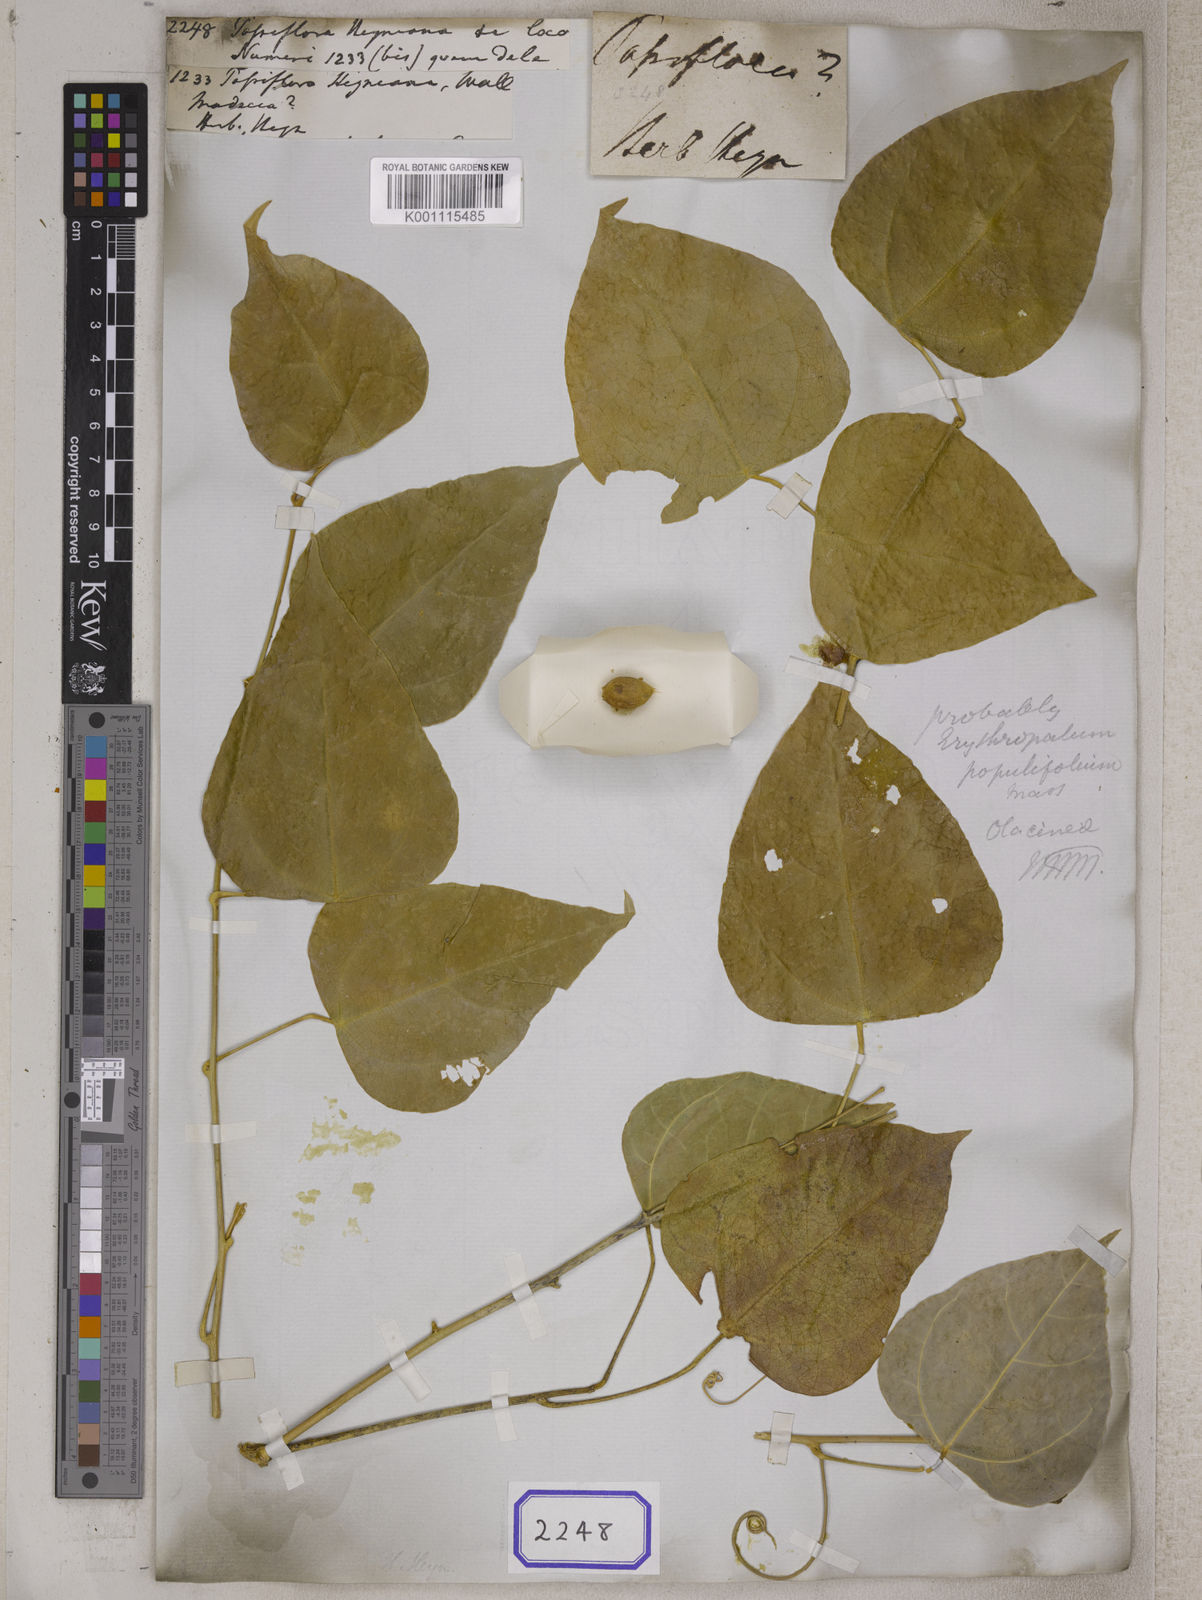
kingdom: Plantae
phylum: Tracheophyta
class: Magnoliopsida
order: Santalales
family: Erythropalaceae
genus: Erythropalum
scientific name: Erythropalum scandens
